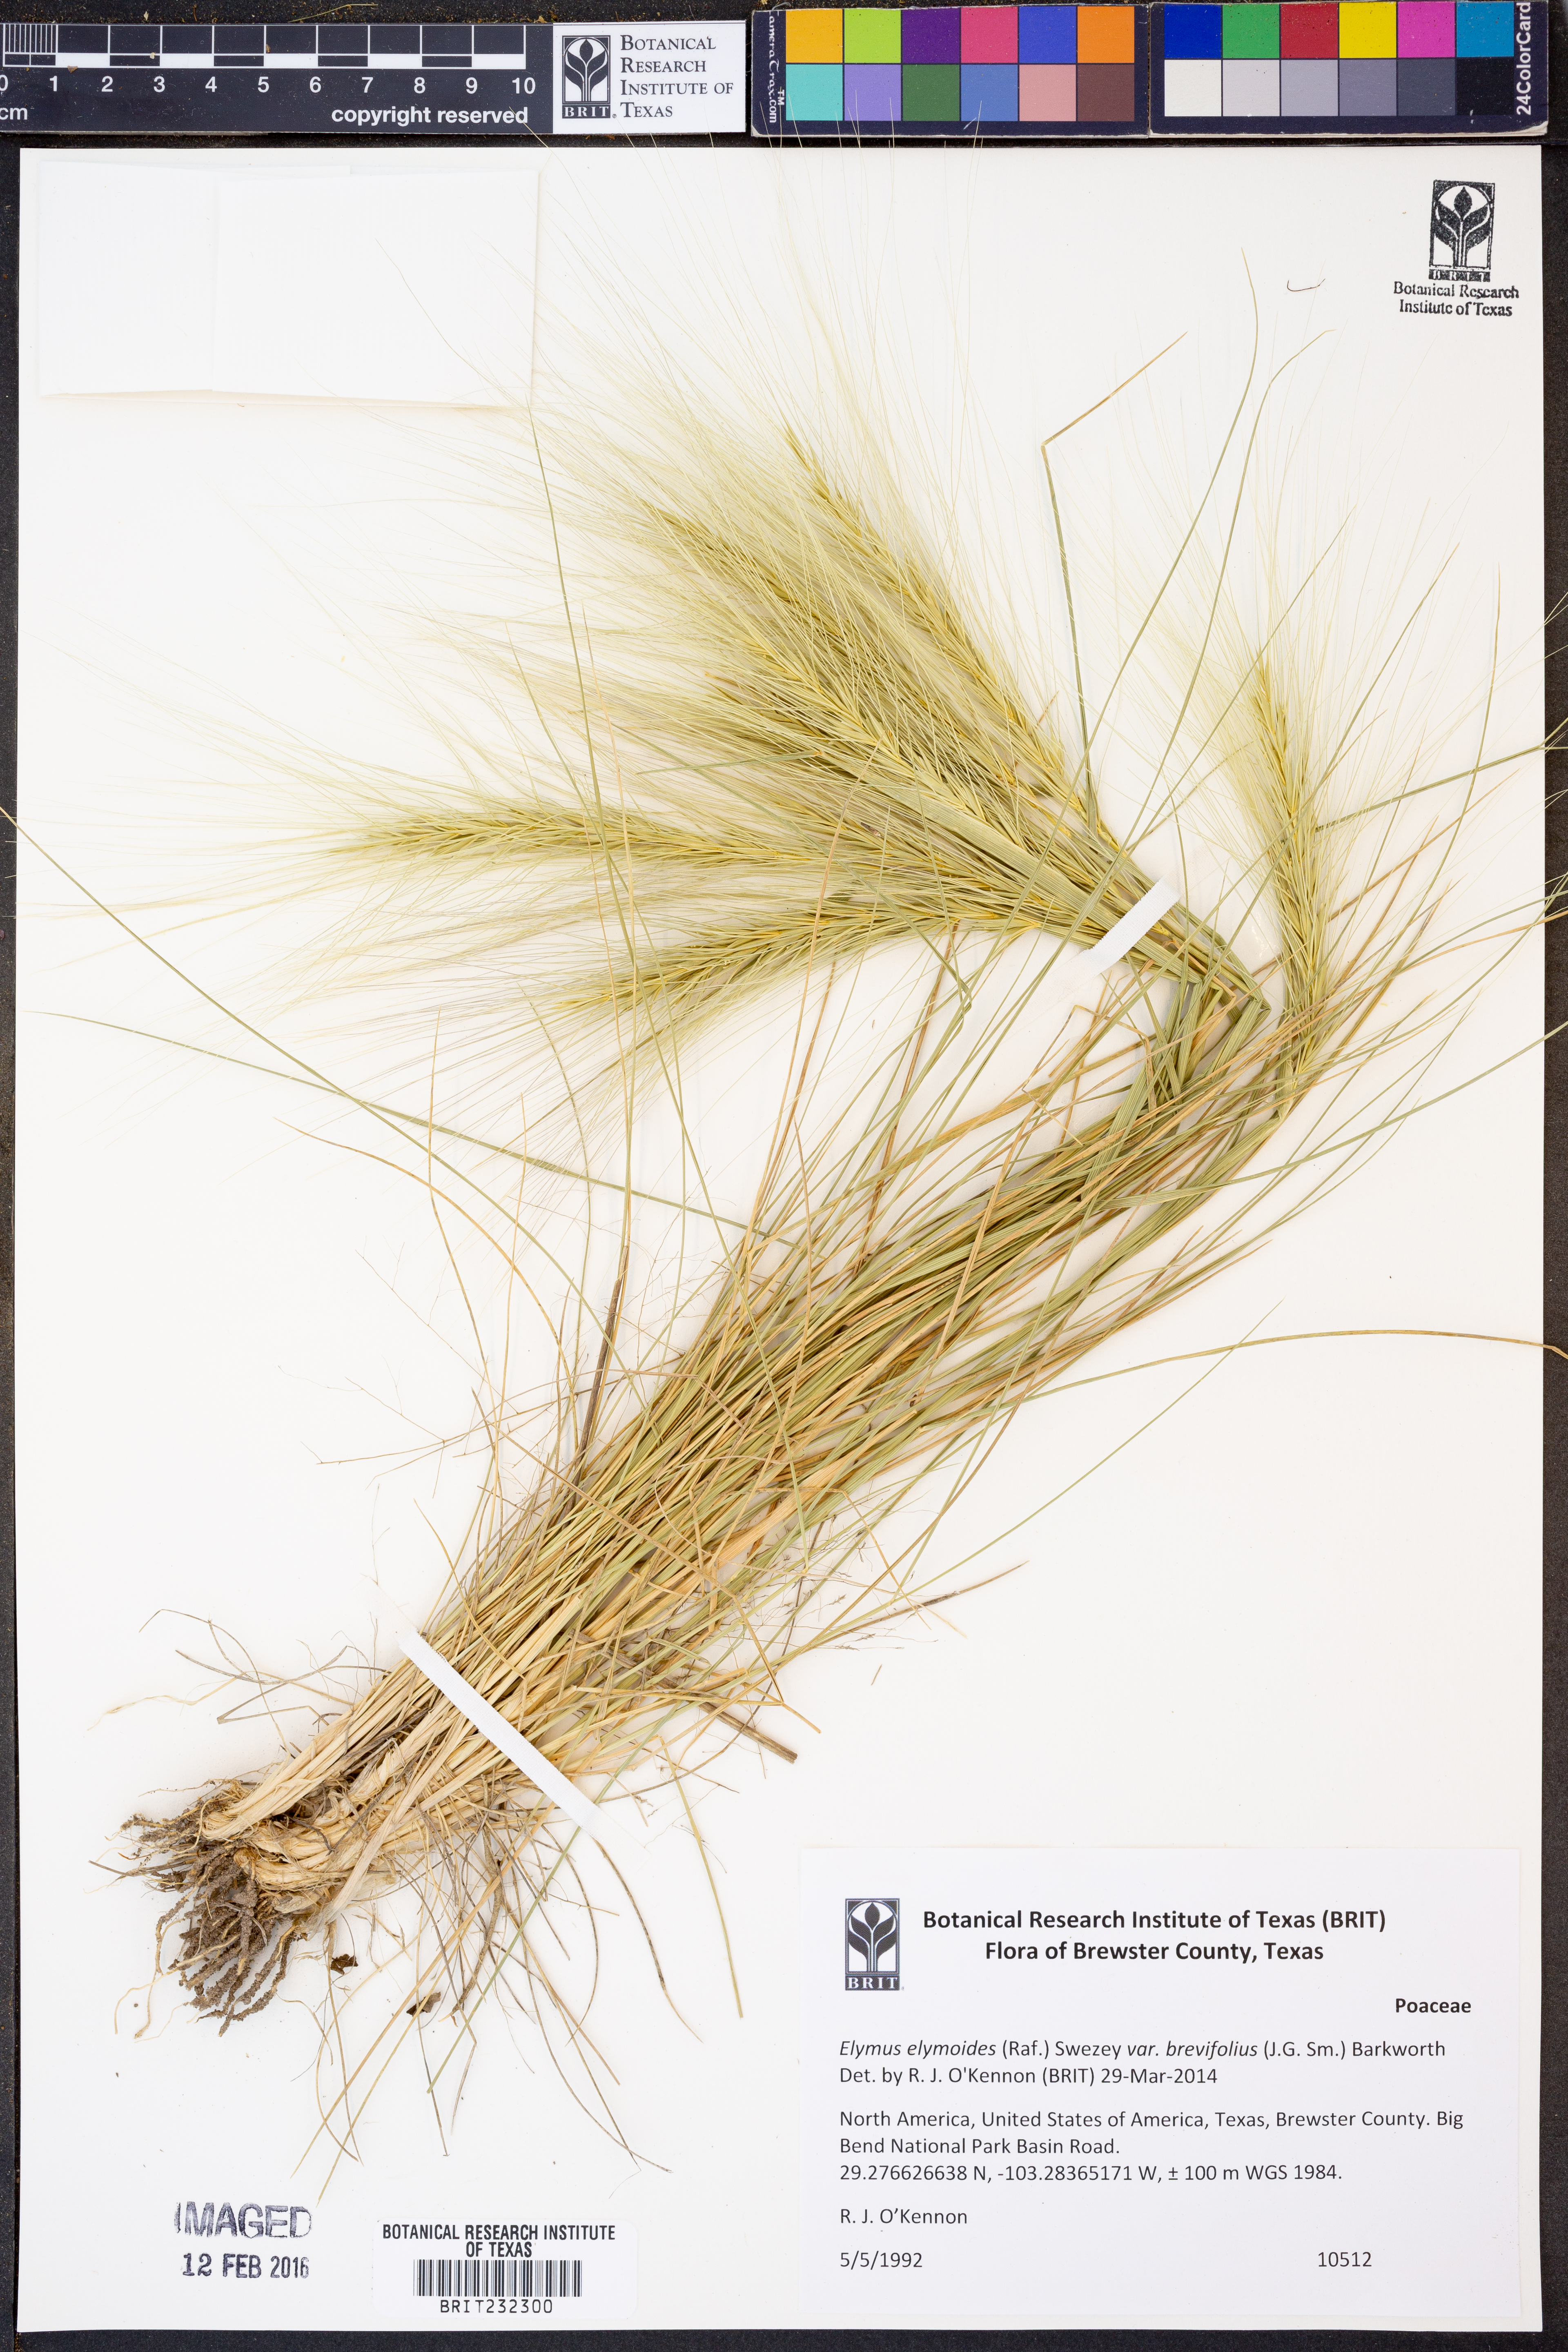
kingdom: Plantae
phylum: Tracheophyta
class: Liliopsida
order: Poales
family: Poaceae
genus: Elymus
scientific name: Elymus longifolius
